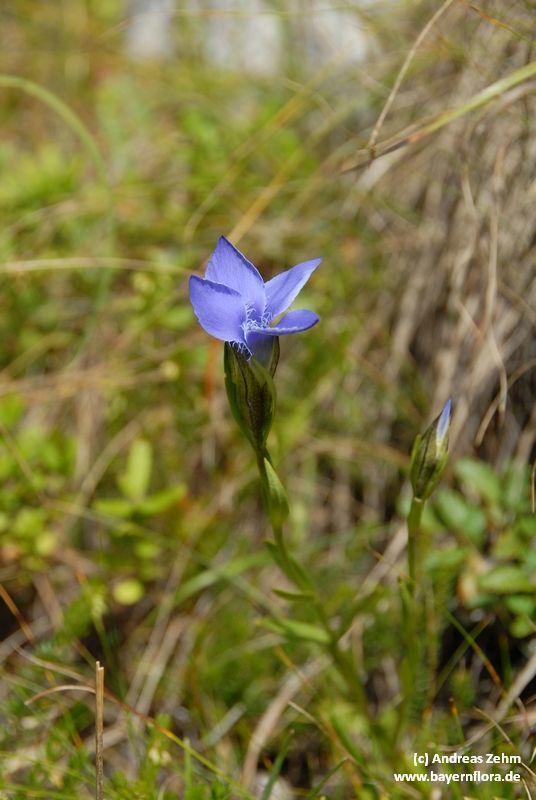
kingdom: Plantae
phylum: Tracheophyta
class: Magnoliopsida
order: Gentianales
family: Gentianaceae
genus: Gentianopsis
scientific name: Gentianopsis ciliata
